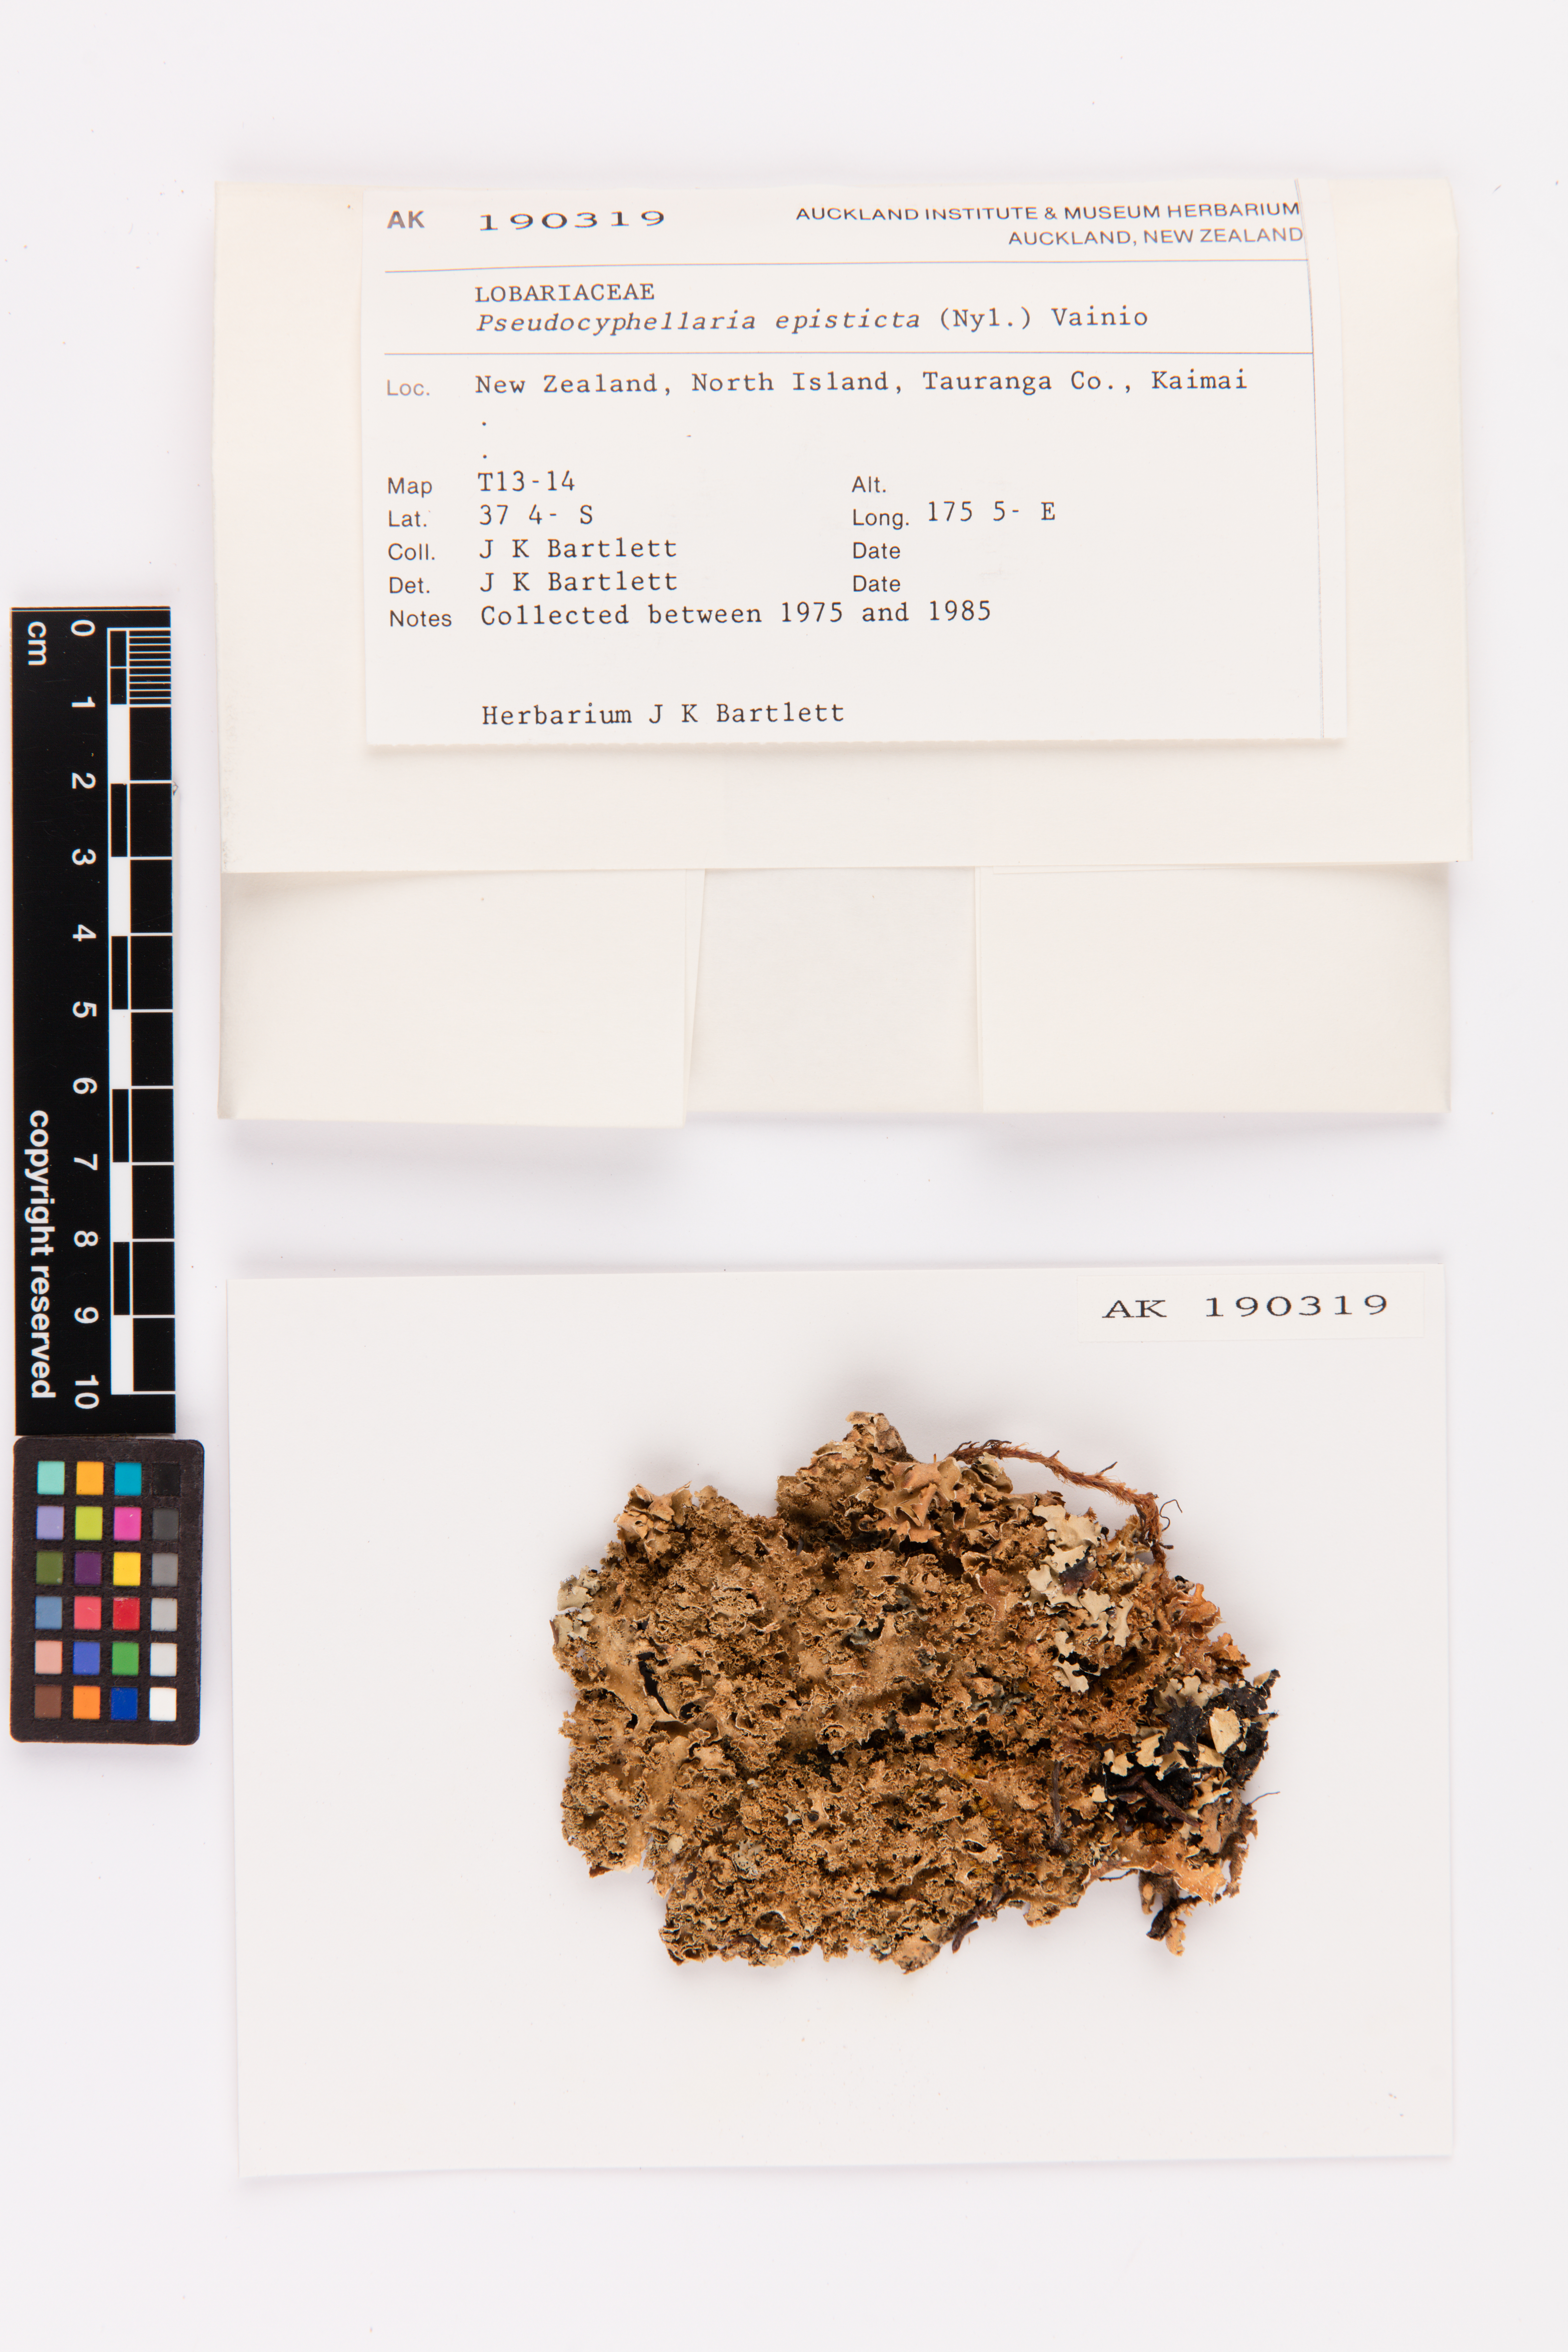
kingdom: Fungi
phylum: Ascomycota
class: Lecanoromycetes
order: Peltigerales
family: Lobariaceae
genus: Pseudocyphellaria
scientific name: Pseudocyphellaria episticta
